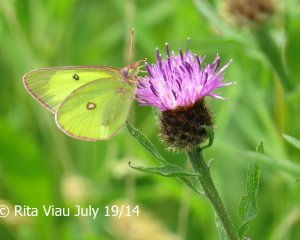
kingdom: Animalia
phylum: Arthropoda
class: Insecta
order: Lepidoptera
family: Pieridae
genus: Colias
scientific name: Colias interior
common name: Pink-edged Sulphur
